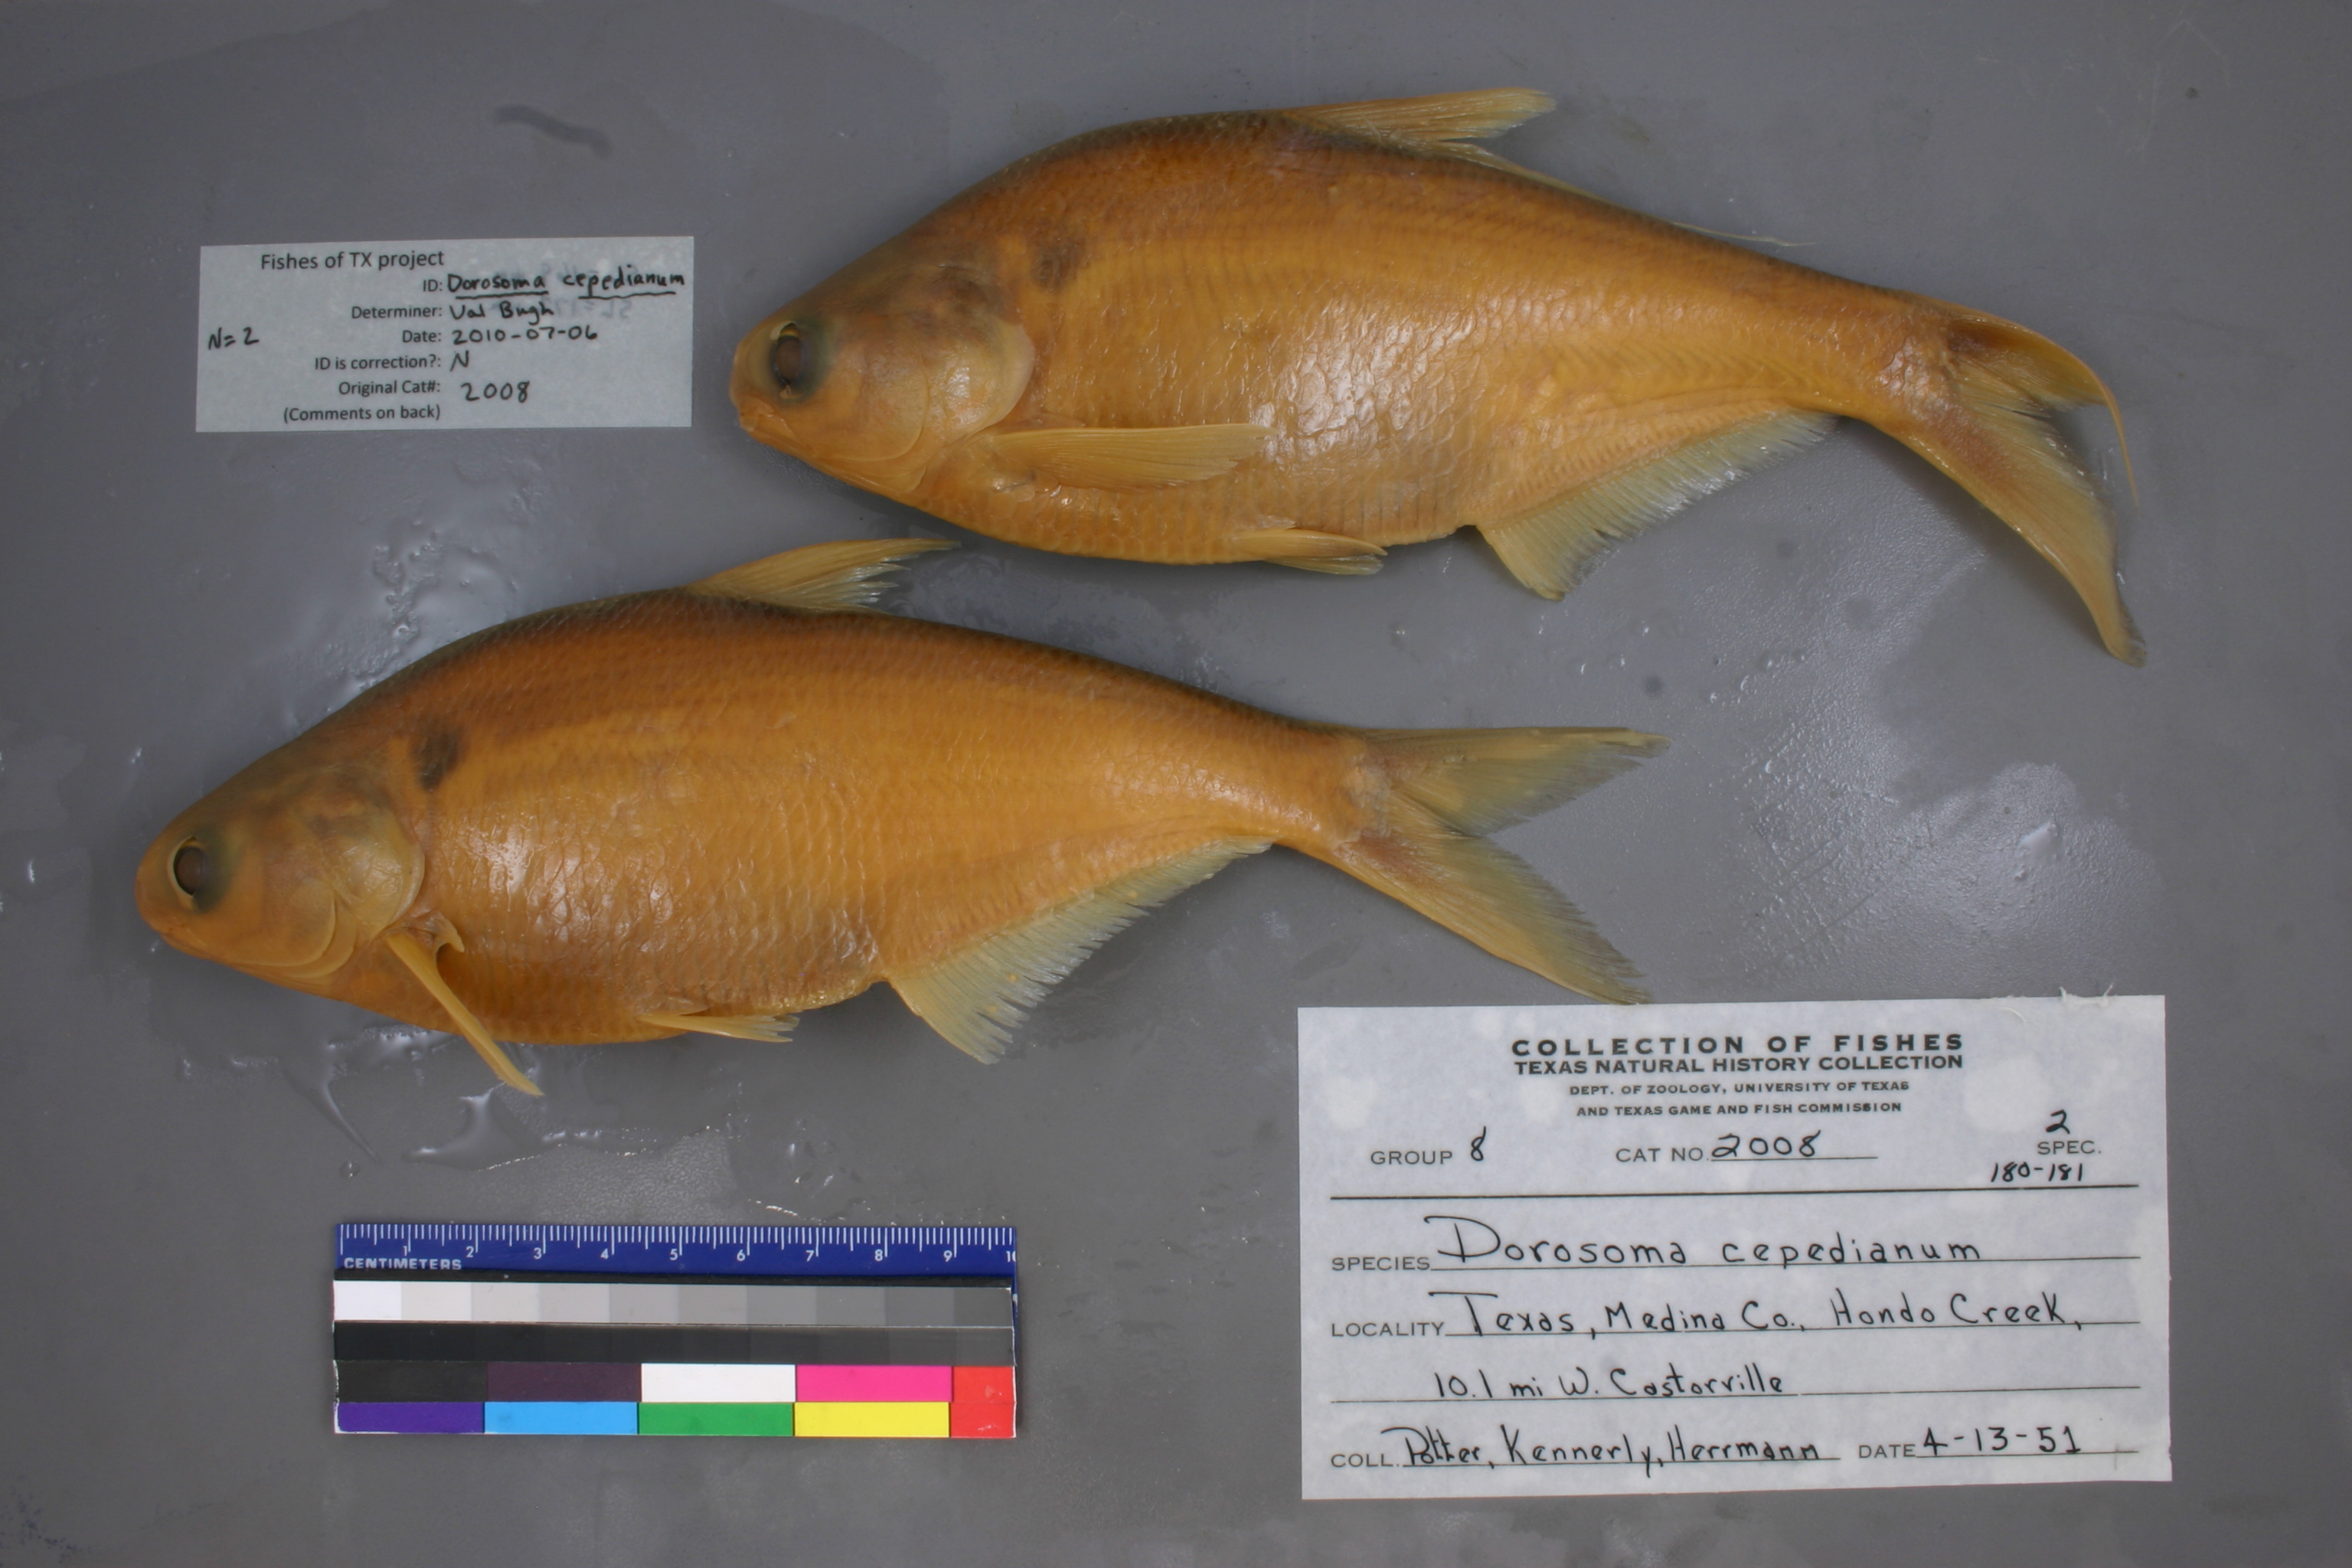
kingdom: Animalia
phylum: Chordata
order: Clupeiformes
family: Clupeidae
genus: Dorosoma
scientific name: Dorosoma cepedianum
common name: Gizzard shad
